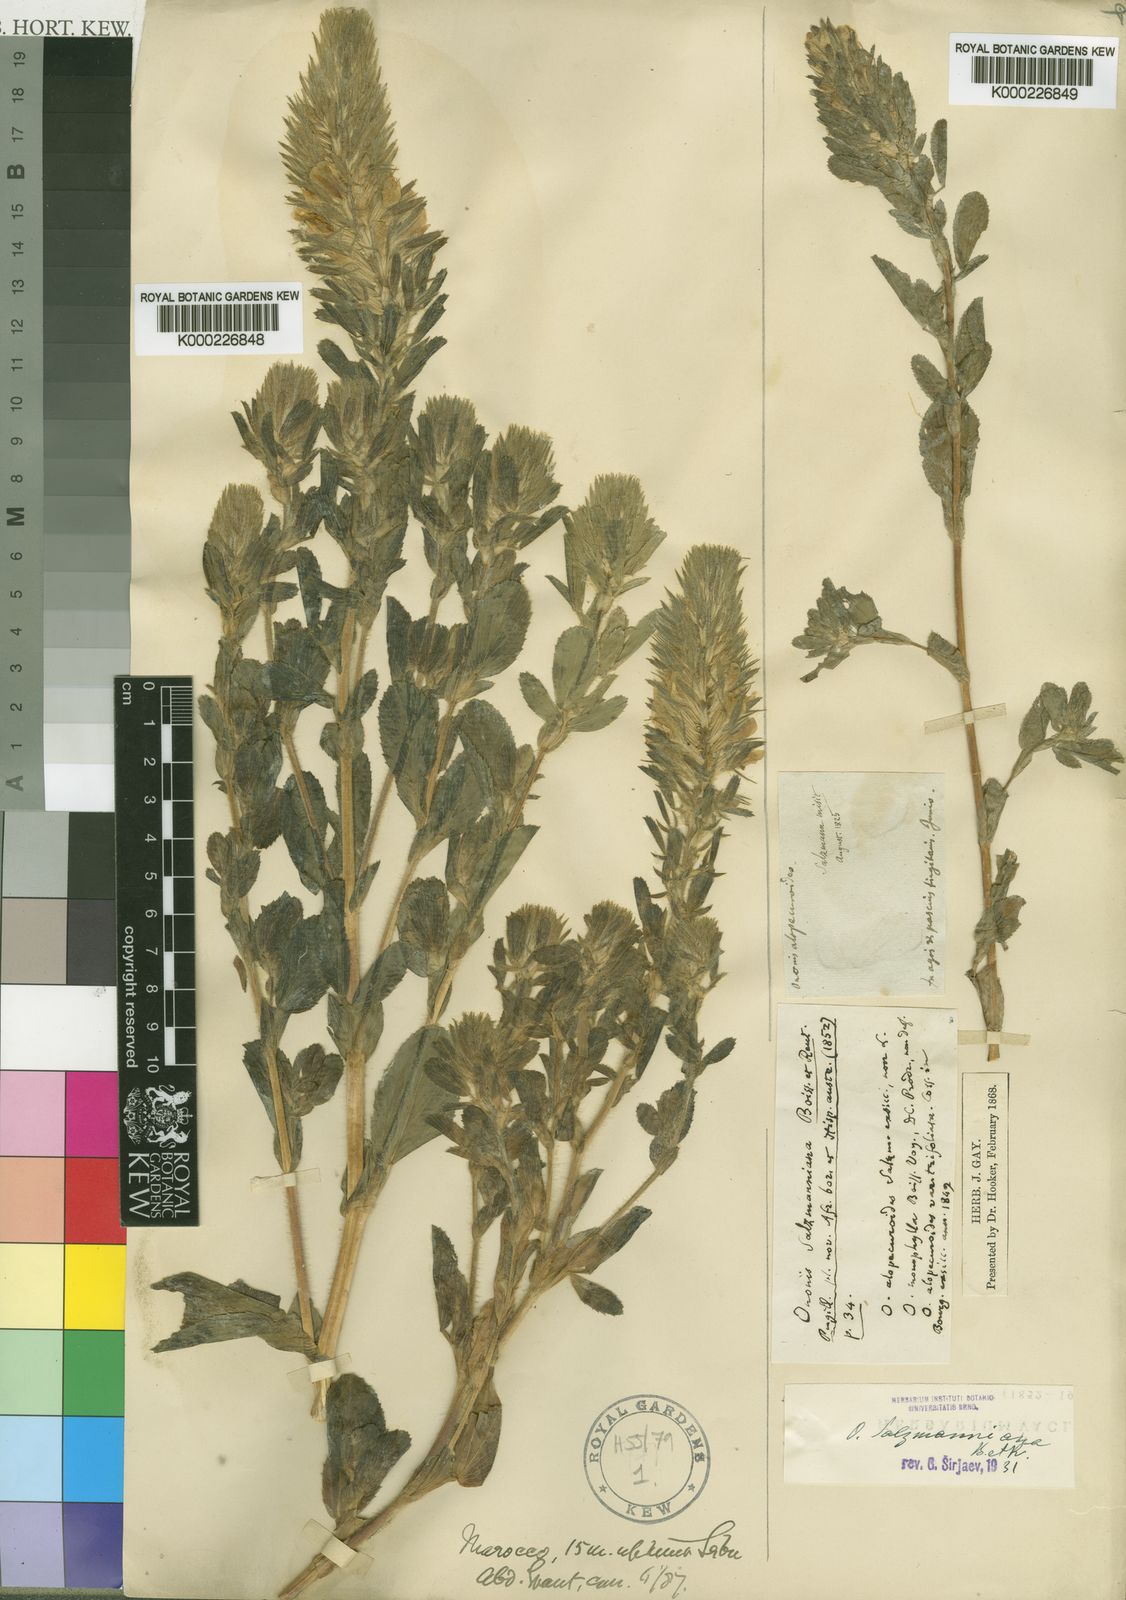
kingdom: Plantae
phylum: Tracheophyta
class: Magnoliopsida
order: Fabales
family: Fabaceae
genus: Ononis
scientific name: Ononis alopecuroides
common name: Salzmann's restharrow
